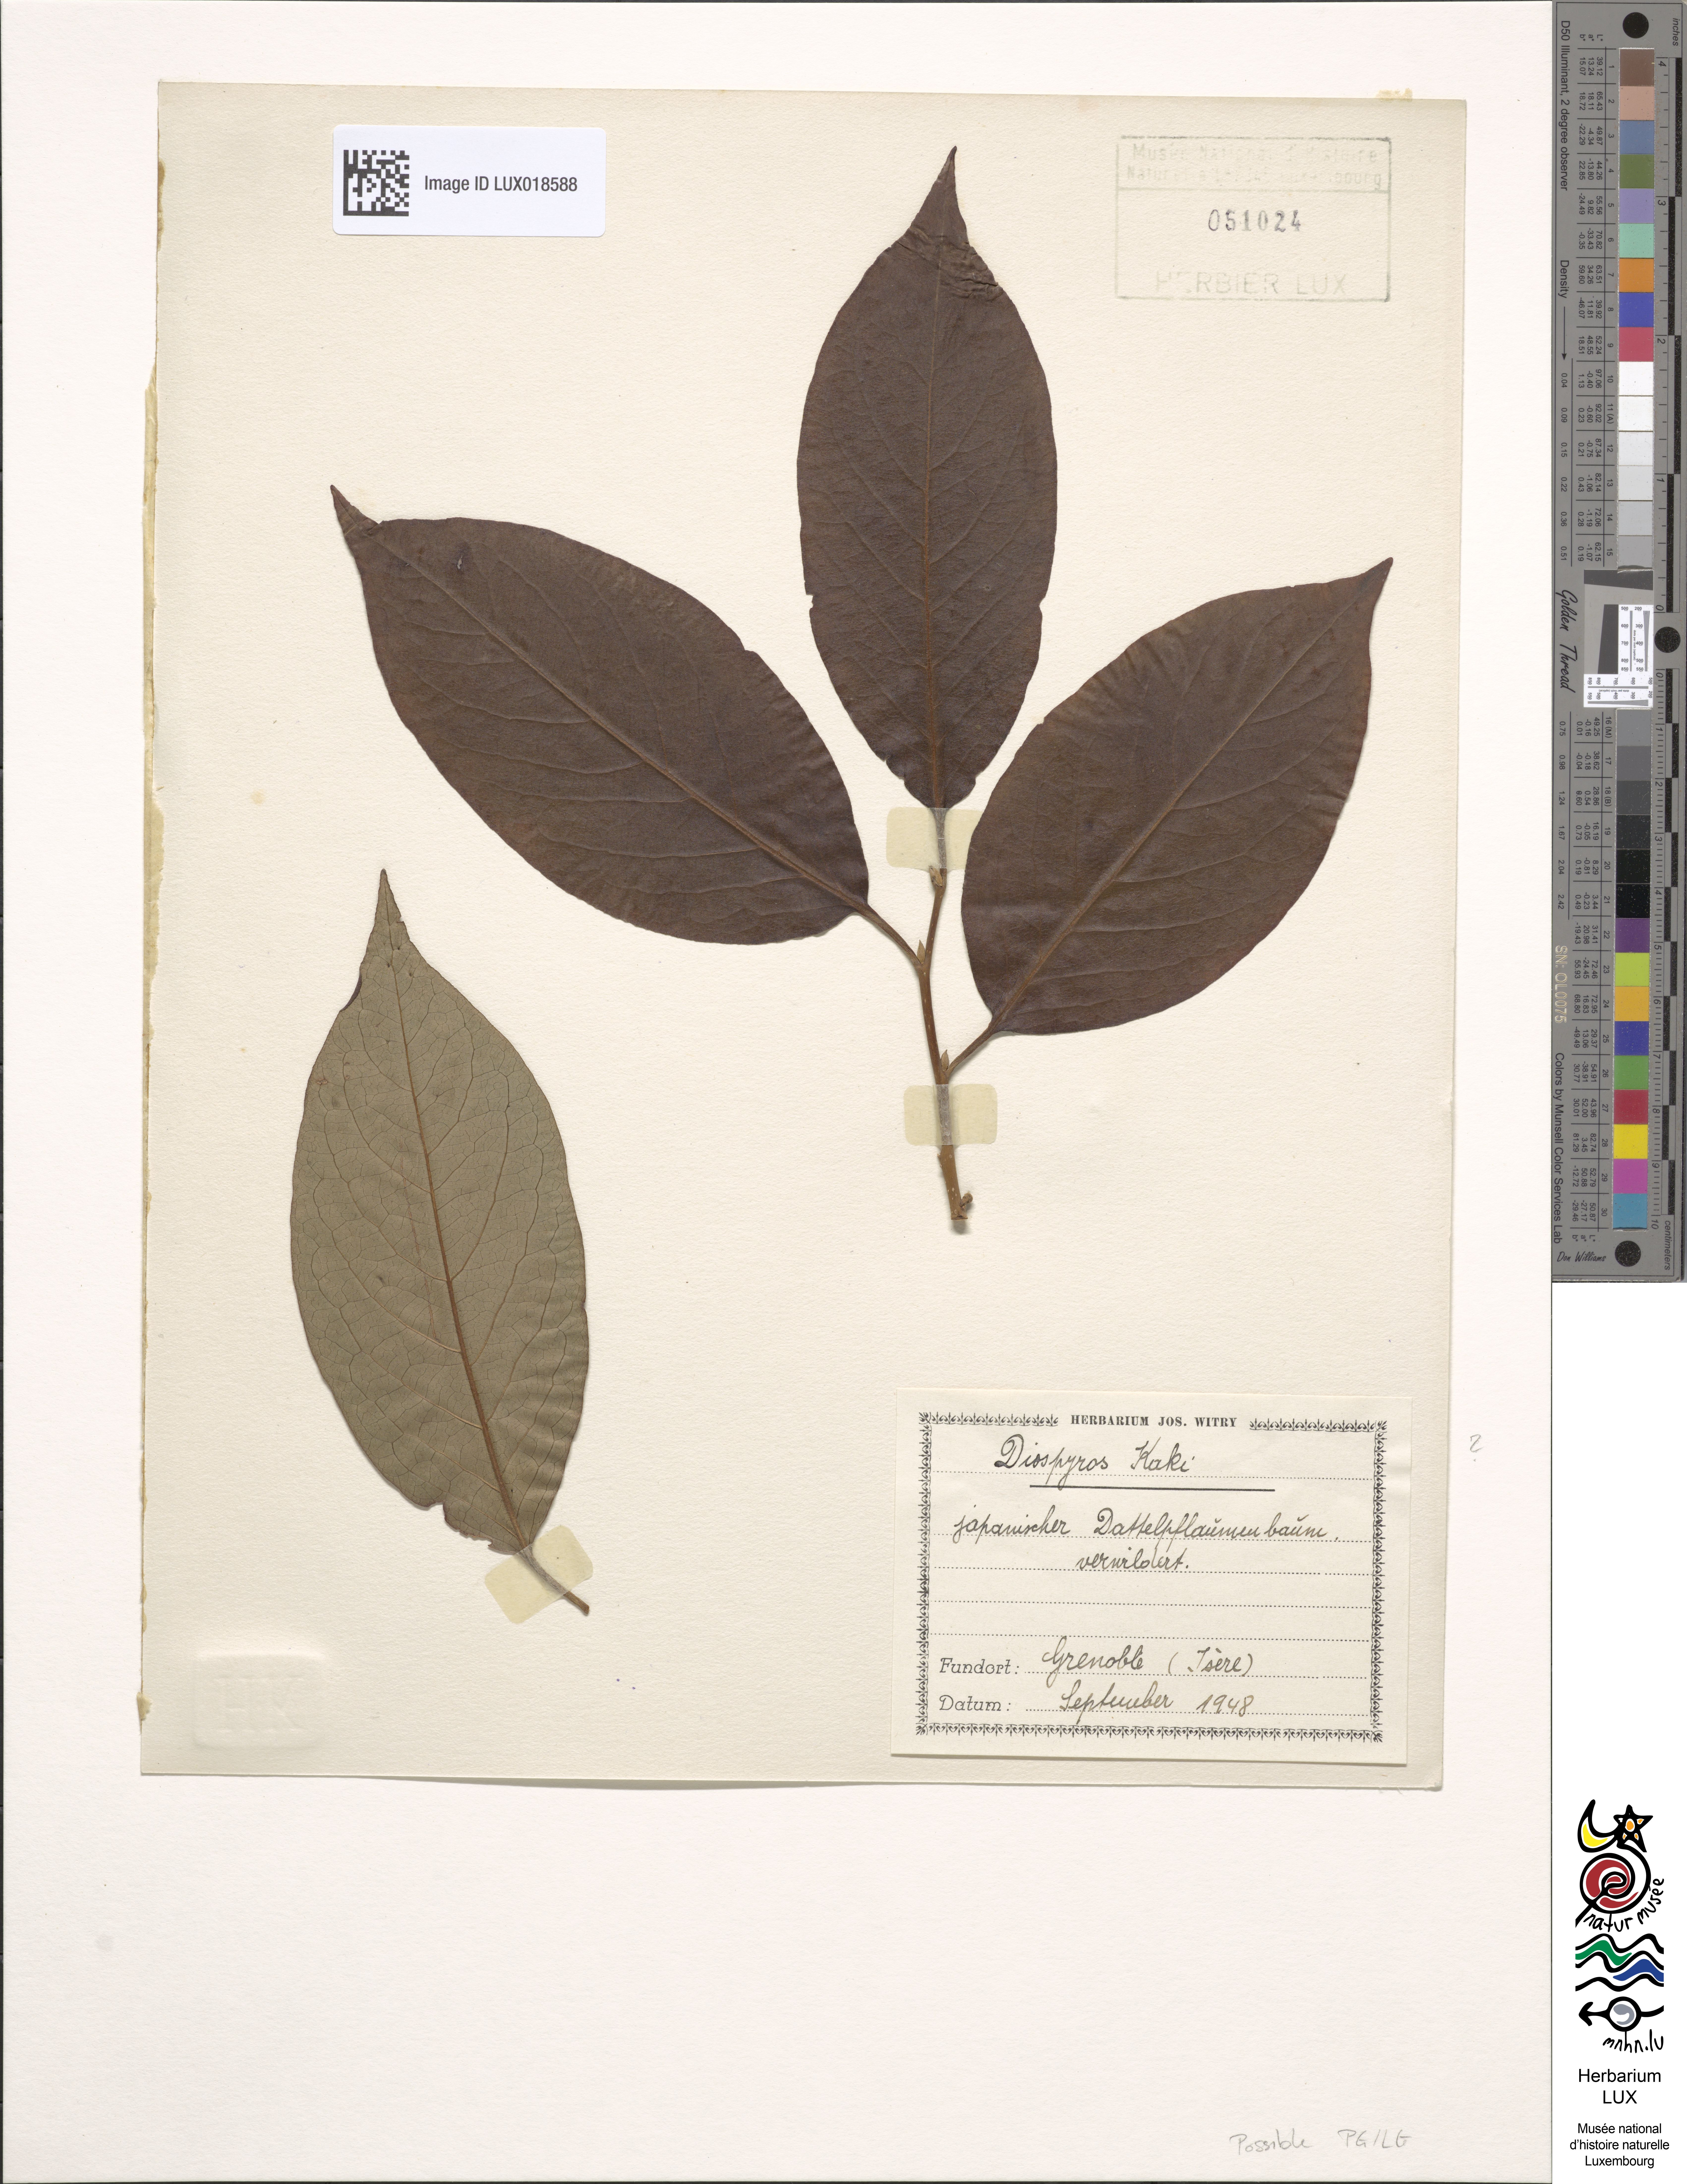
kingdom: Plantae
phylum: Tracheophyta
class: Magnoliopsida
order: Ericales
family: Ebenaceae
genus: Diospyros
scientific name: Diospyros kaki
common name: Persimmon
